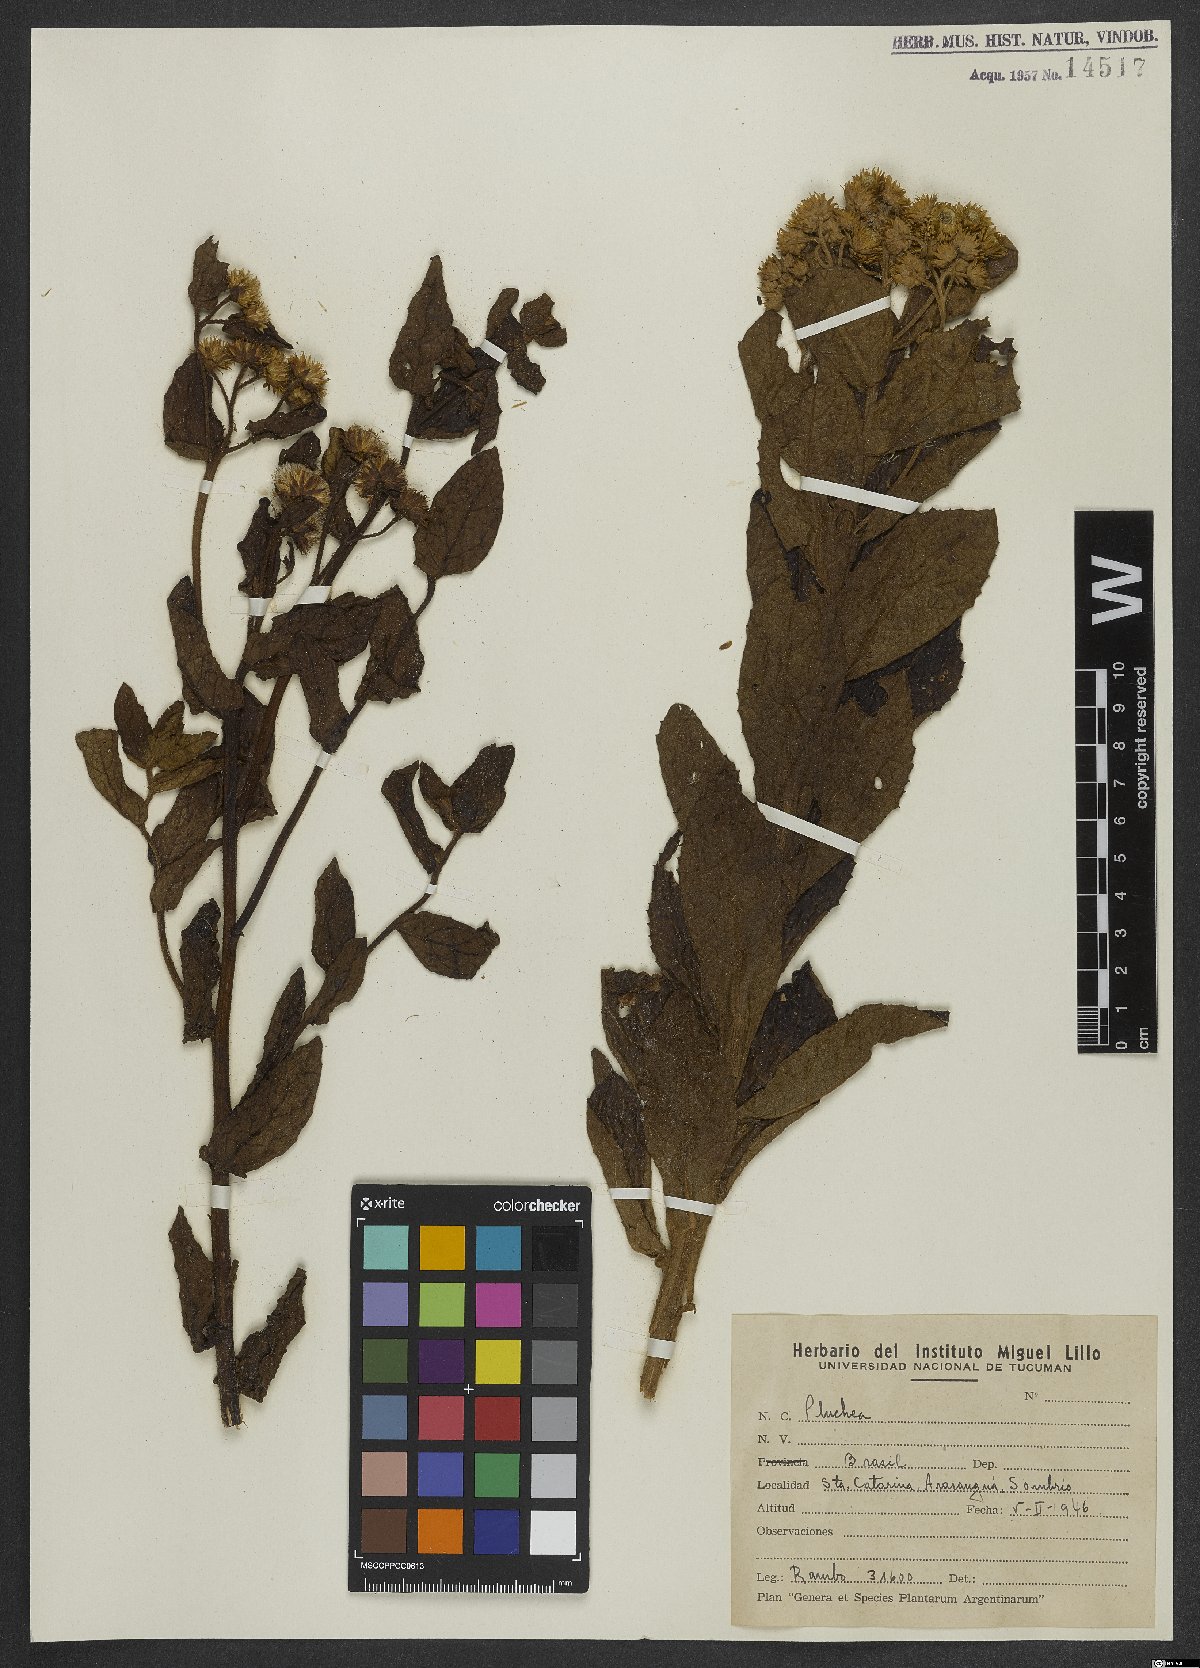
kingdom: Plantae
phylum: Tracheophyta
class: Magnoliopsida
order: Asterales
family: Asteraceae
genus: Pluchea
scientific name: Pluchea
